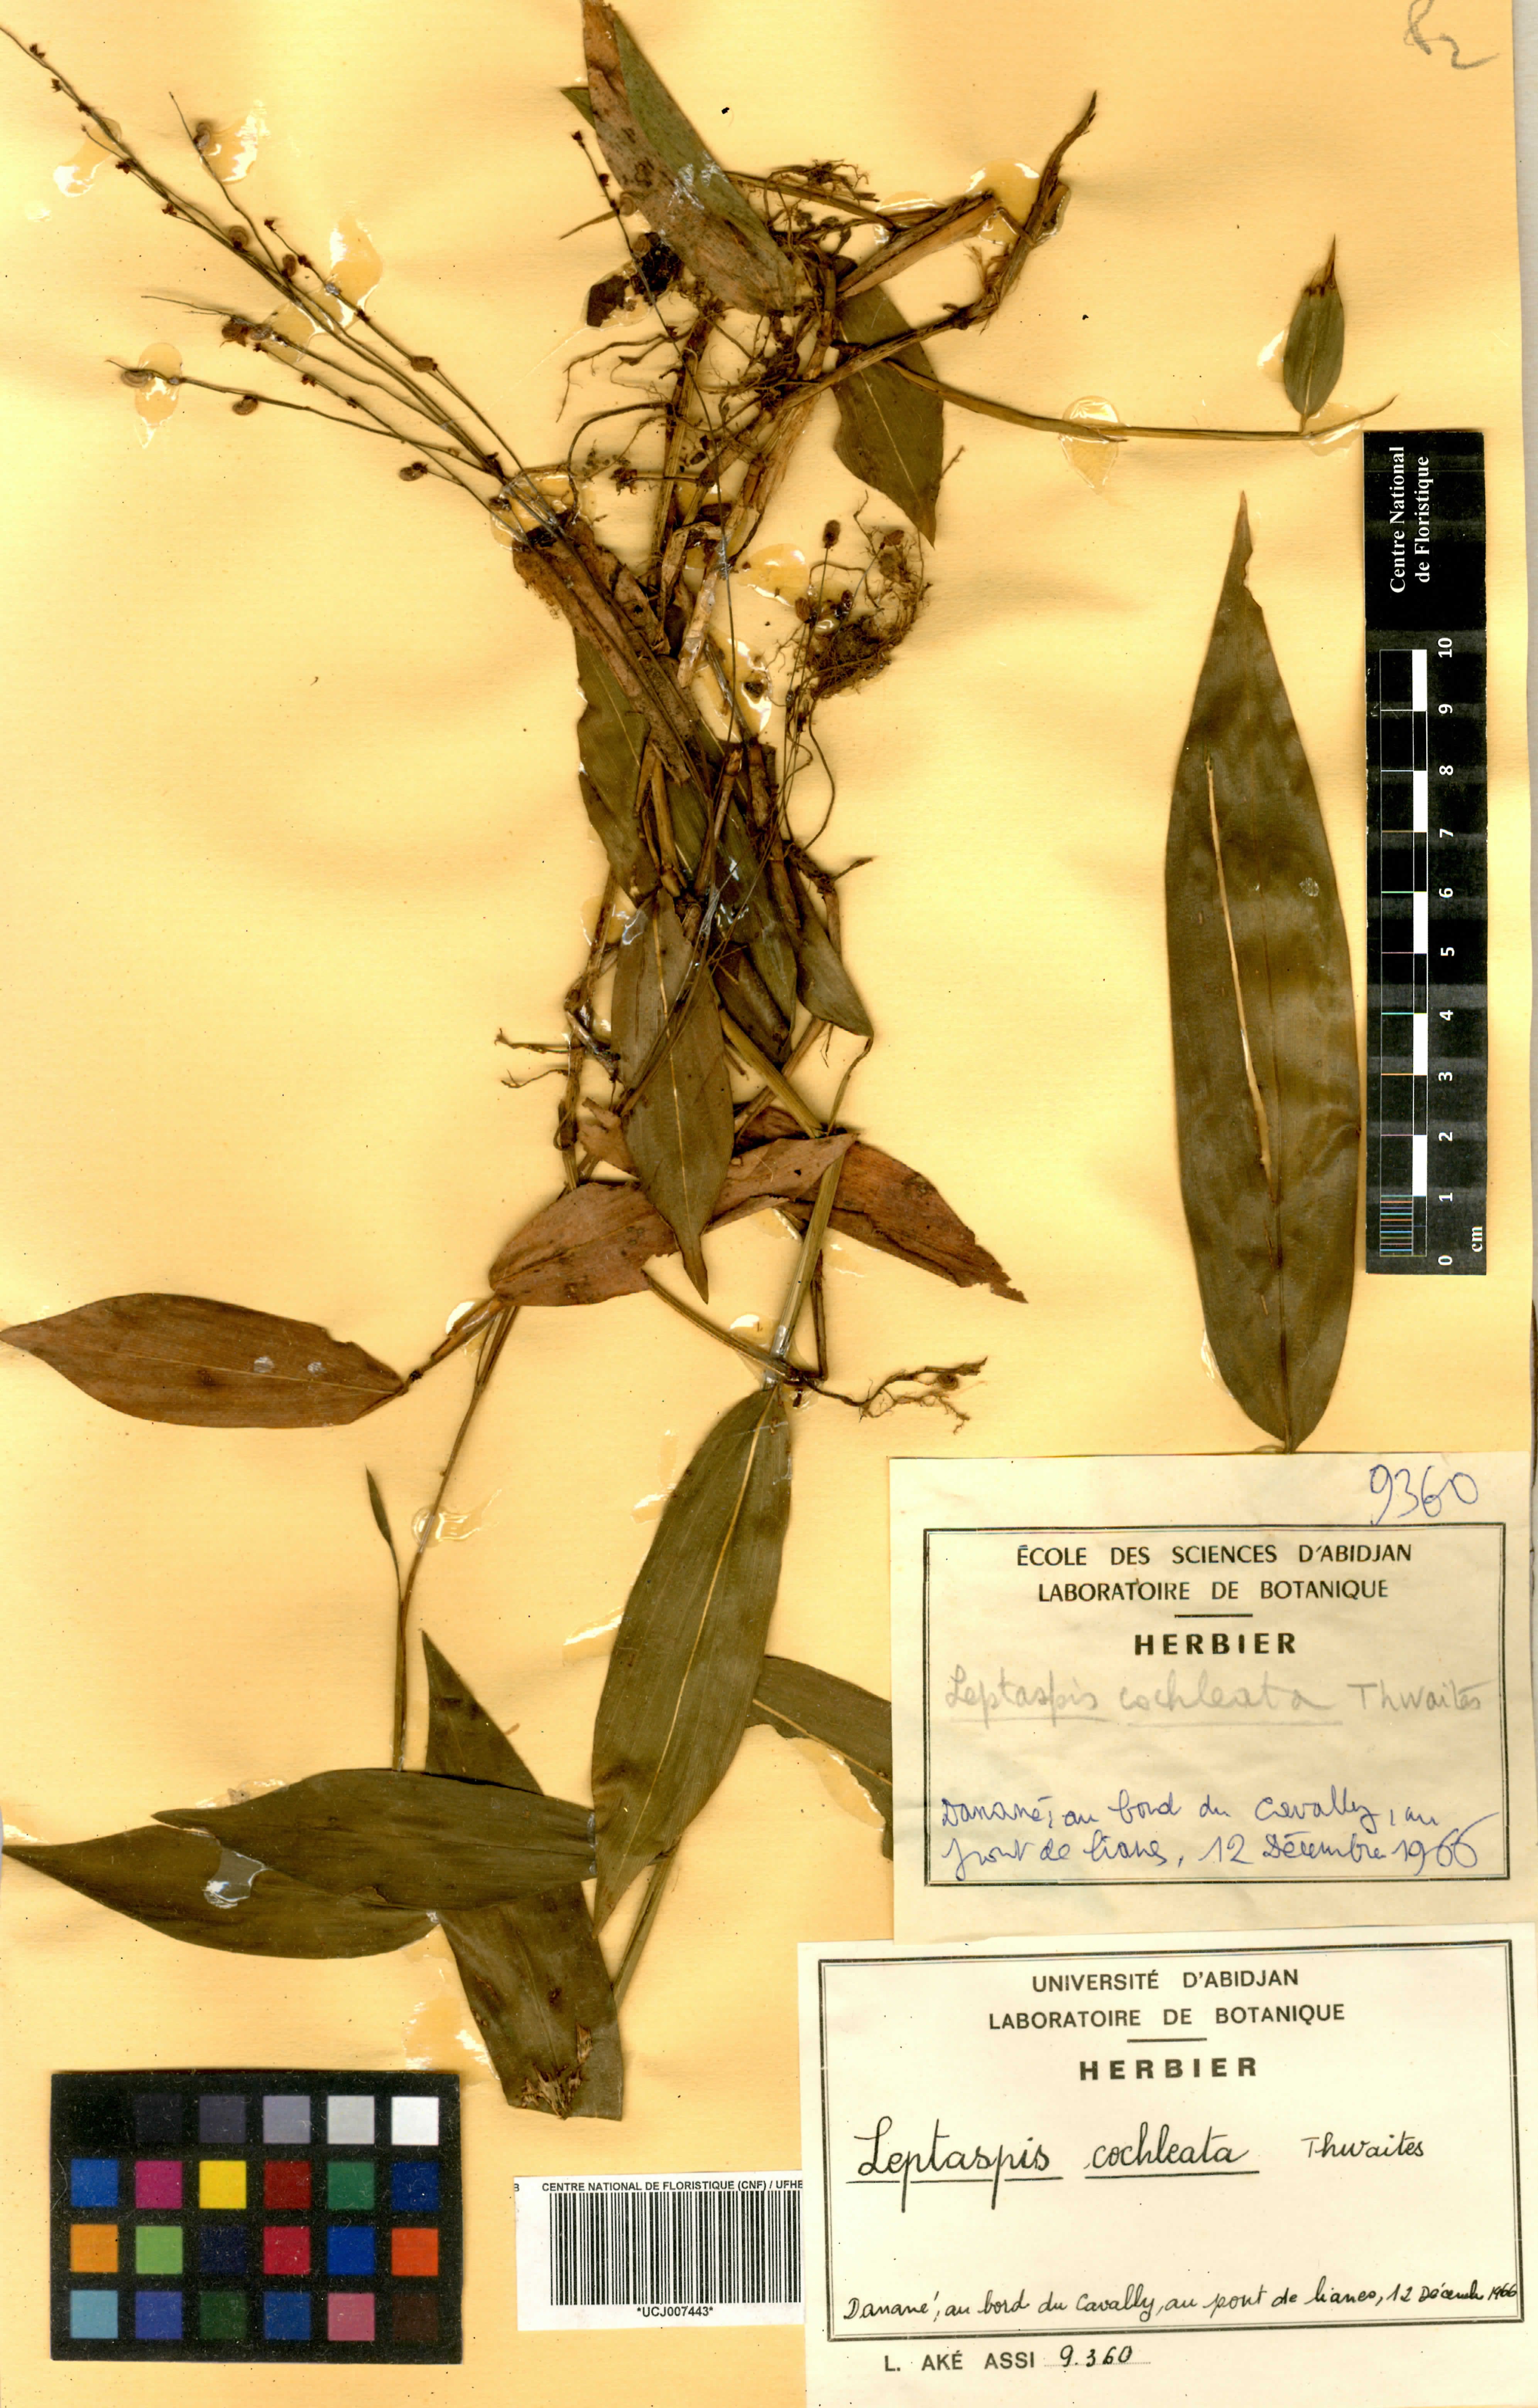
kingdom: Plantae
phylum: Tracheophyta
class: Liliopsida
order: Poales
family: Poaceae
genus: Leptaspis
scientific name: Leptaspis zeylanica
